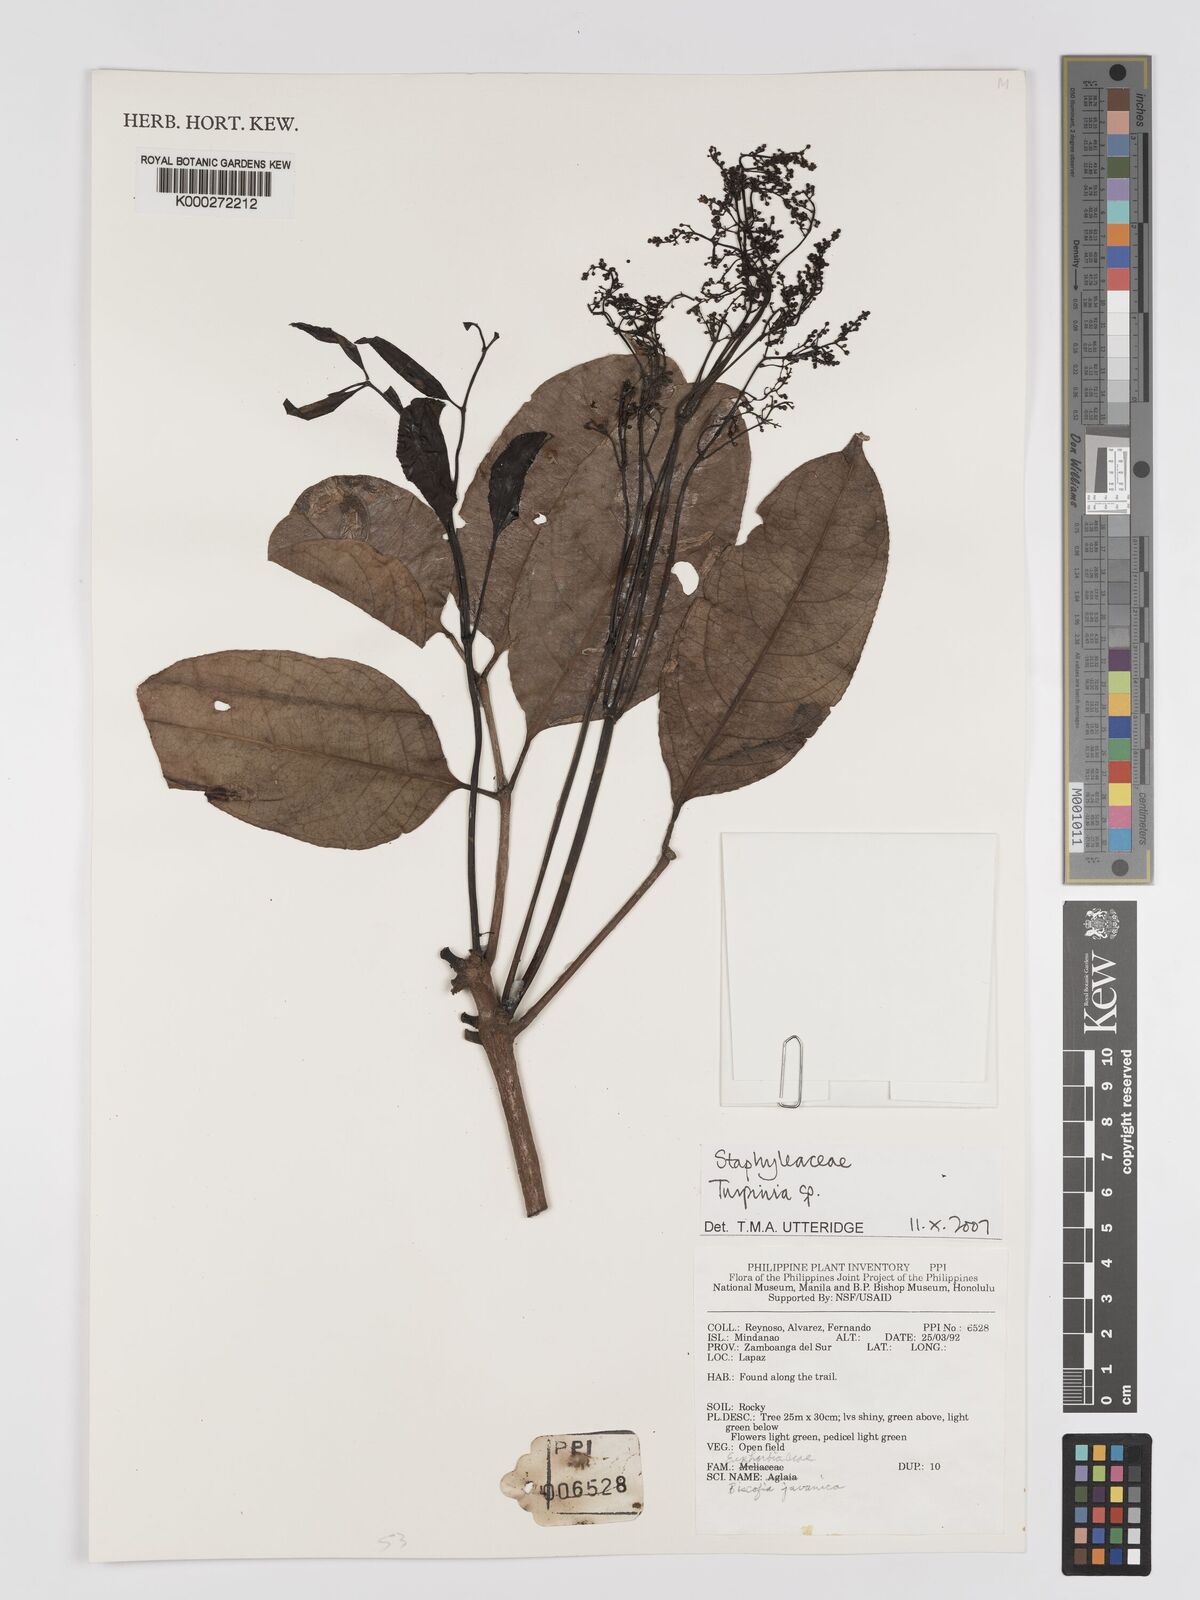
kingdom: Plantae
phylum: Tracheophyta
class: Magnoliopsida
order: Crossosomatales
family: Staphyleaceae
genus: Turpinia
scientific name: Turpinia
